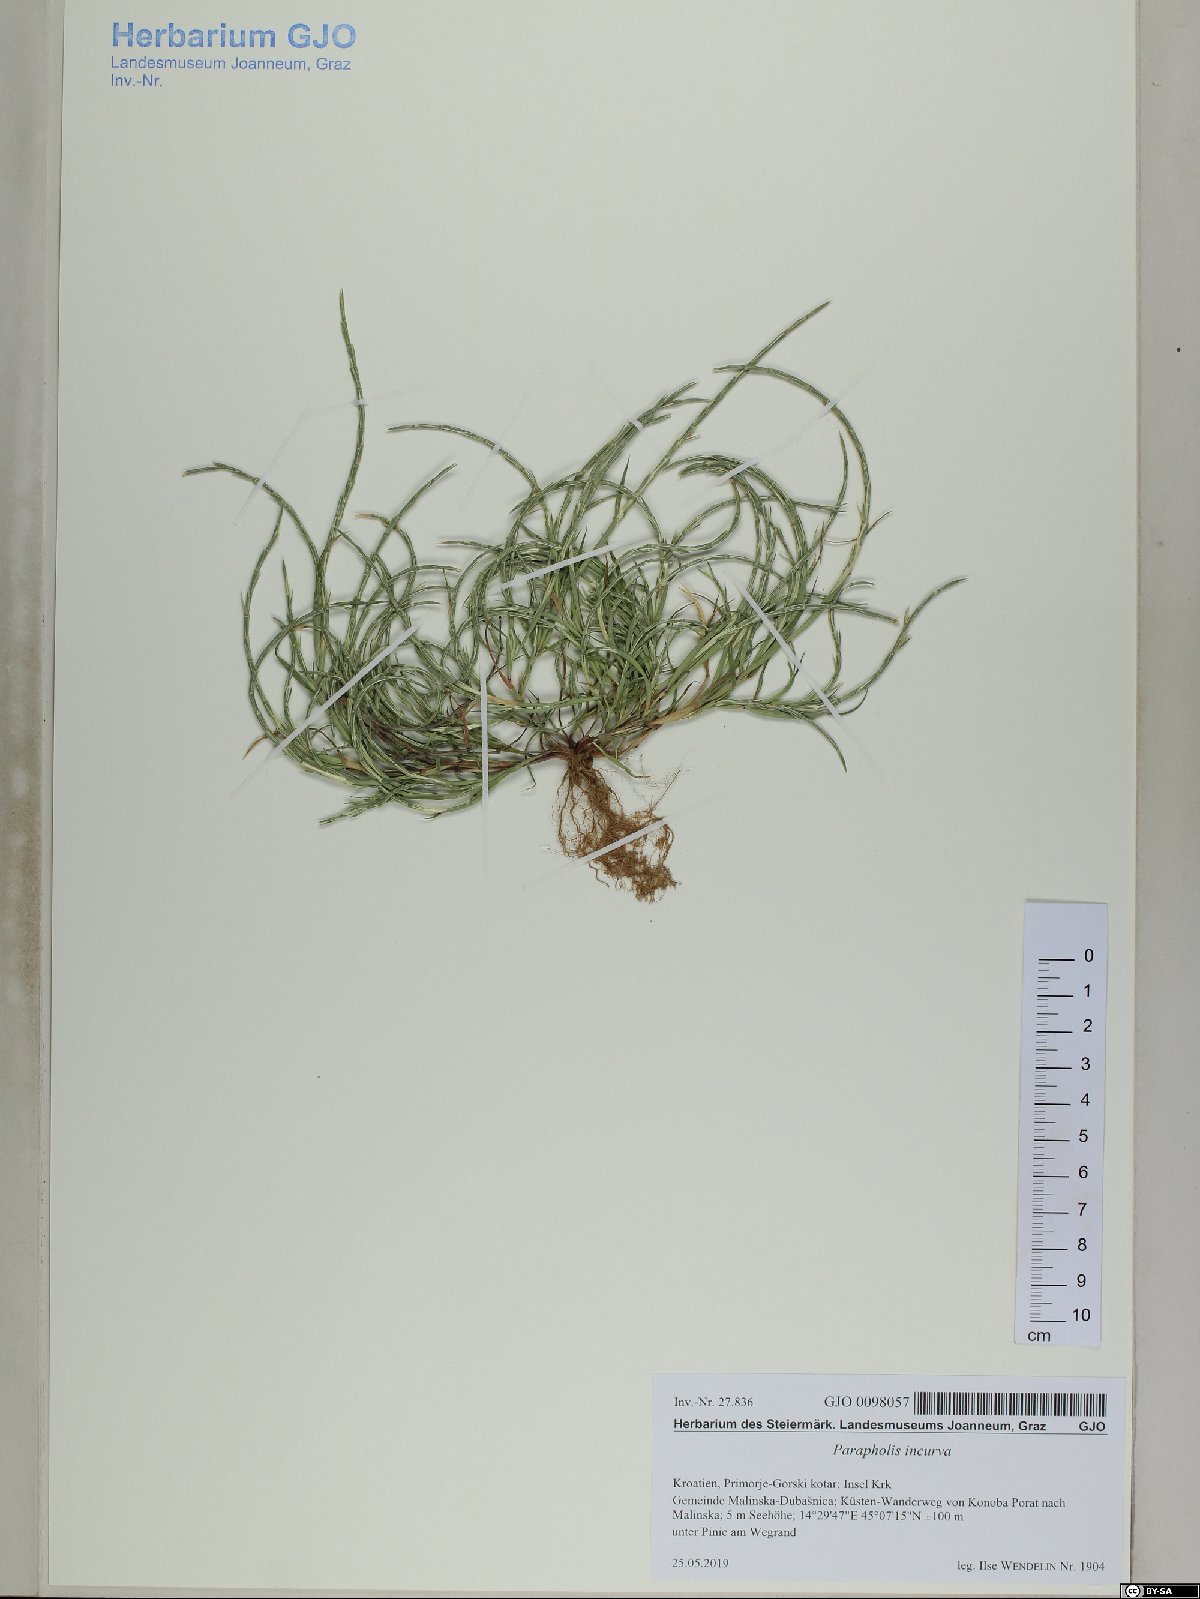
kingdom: Plantae
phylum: Tracheophyta
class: Liliopsida
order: Poales
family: Poaceae
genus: Parapholis
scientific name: Parapholis incurva
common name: Curved sicklegrass
